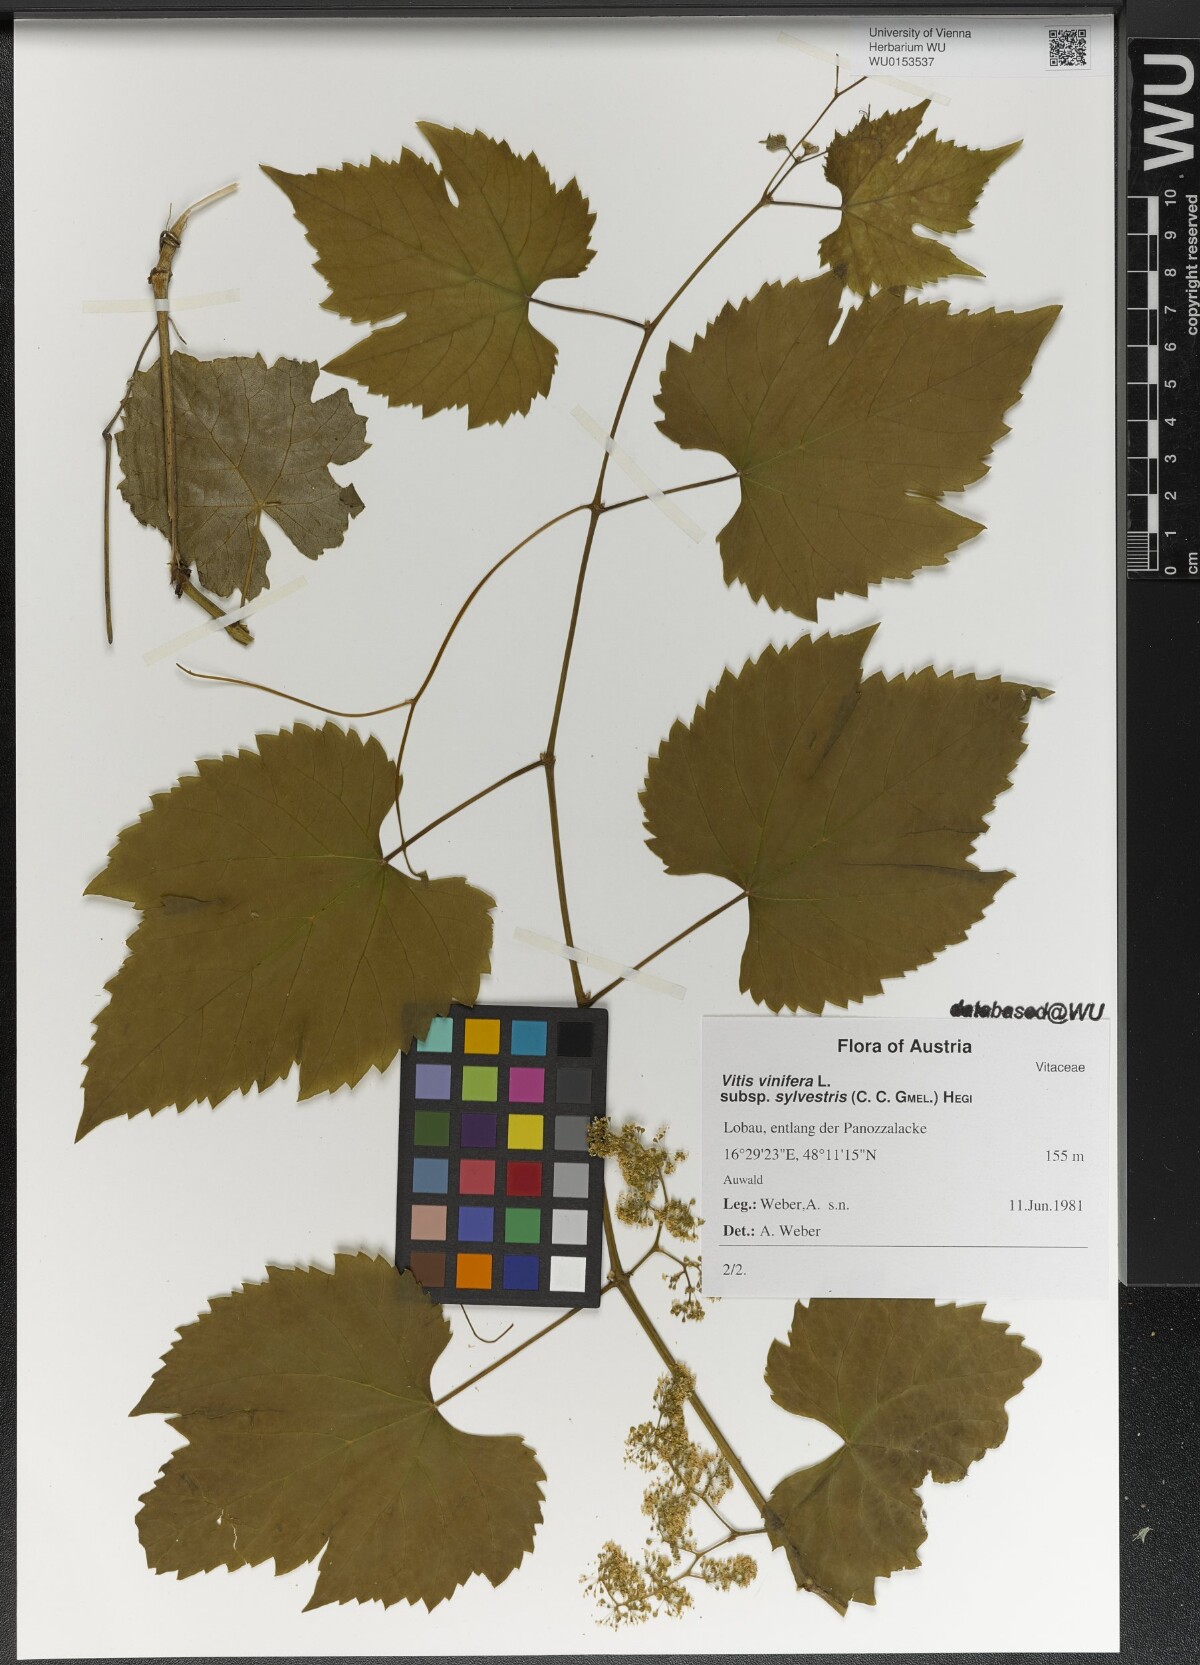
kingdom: Plantae
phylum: Tracheophyta
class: Magnoliopsida
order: Vitales
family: Vitaceae
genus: Vitis
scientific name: Vitis gmelinii
